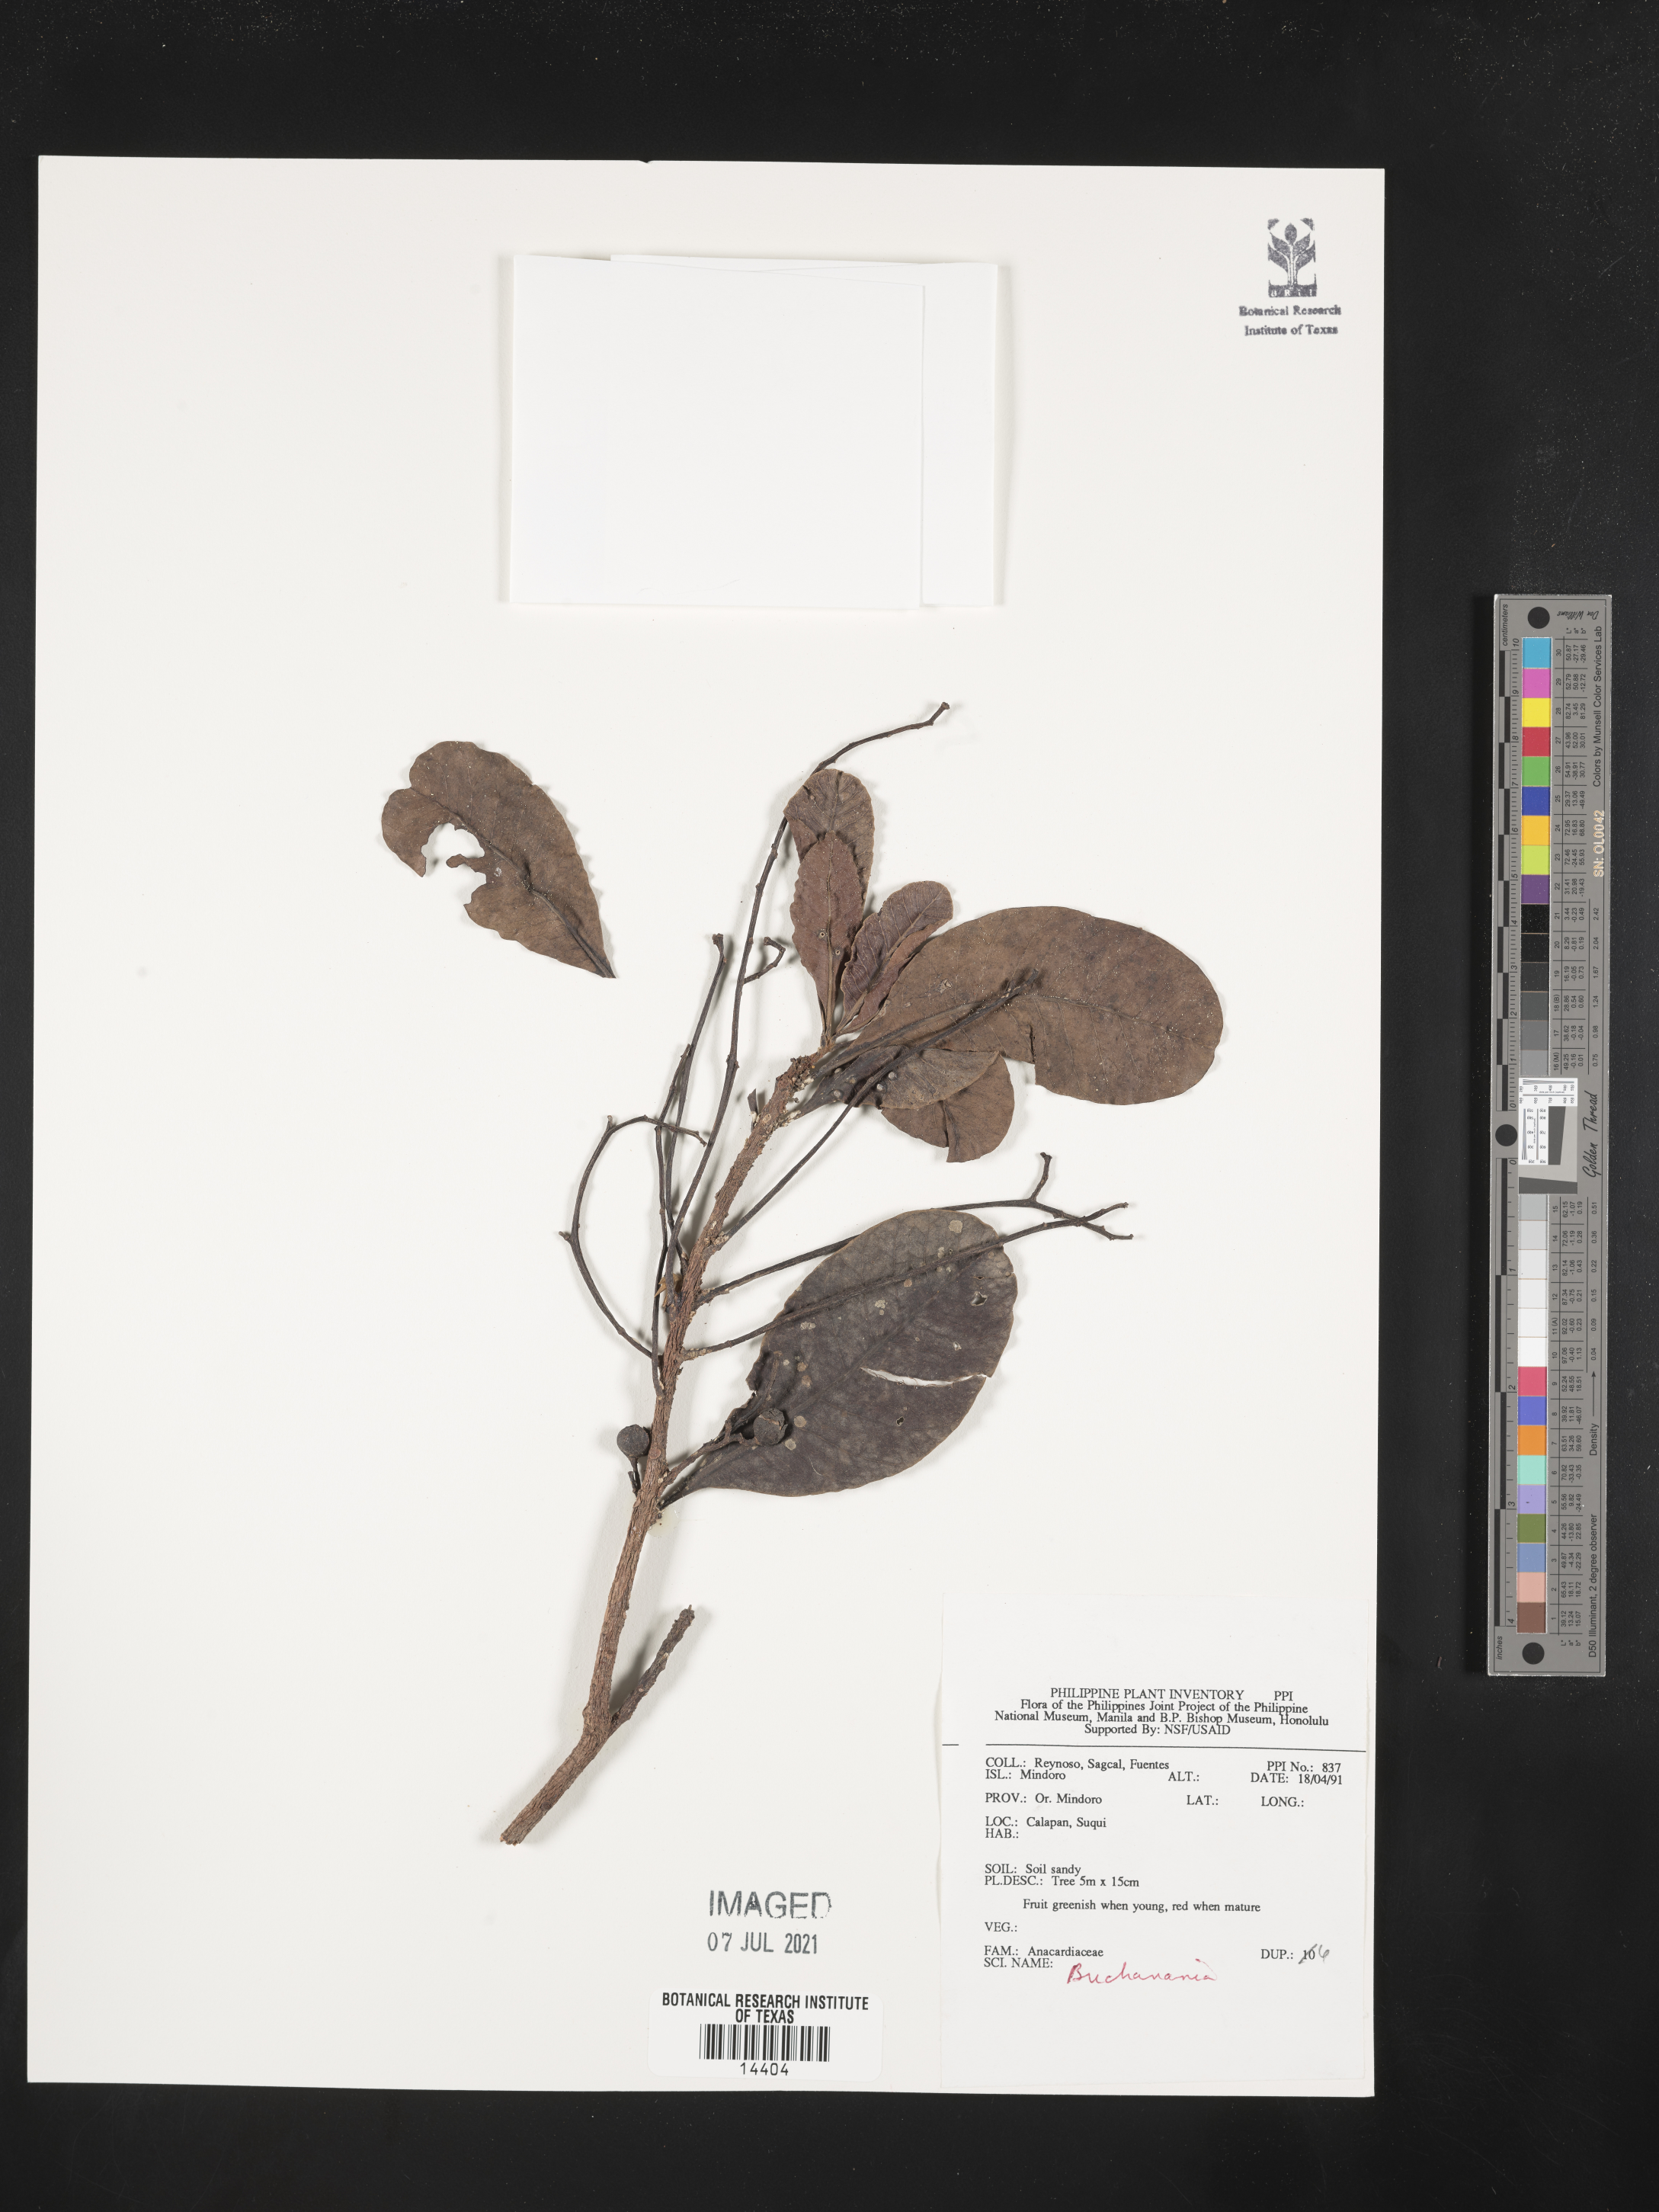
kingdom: Plantae
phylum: Tracheophyta
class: Magnoliopsida
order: Sapindales
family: Anacardiaceae
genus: Buchanania
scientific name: Buchanania
